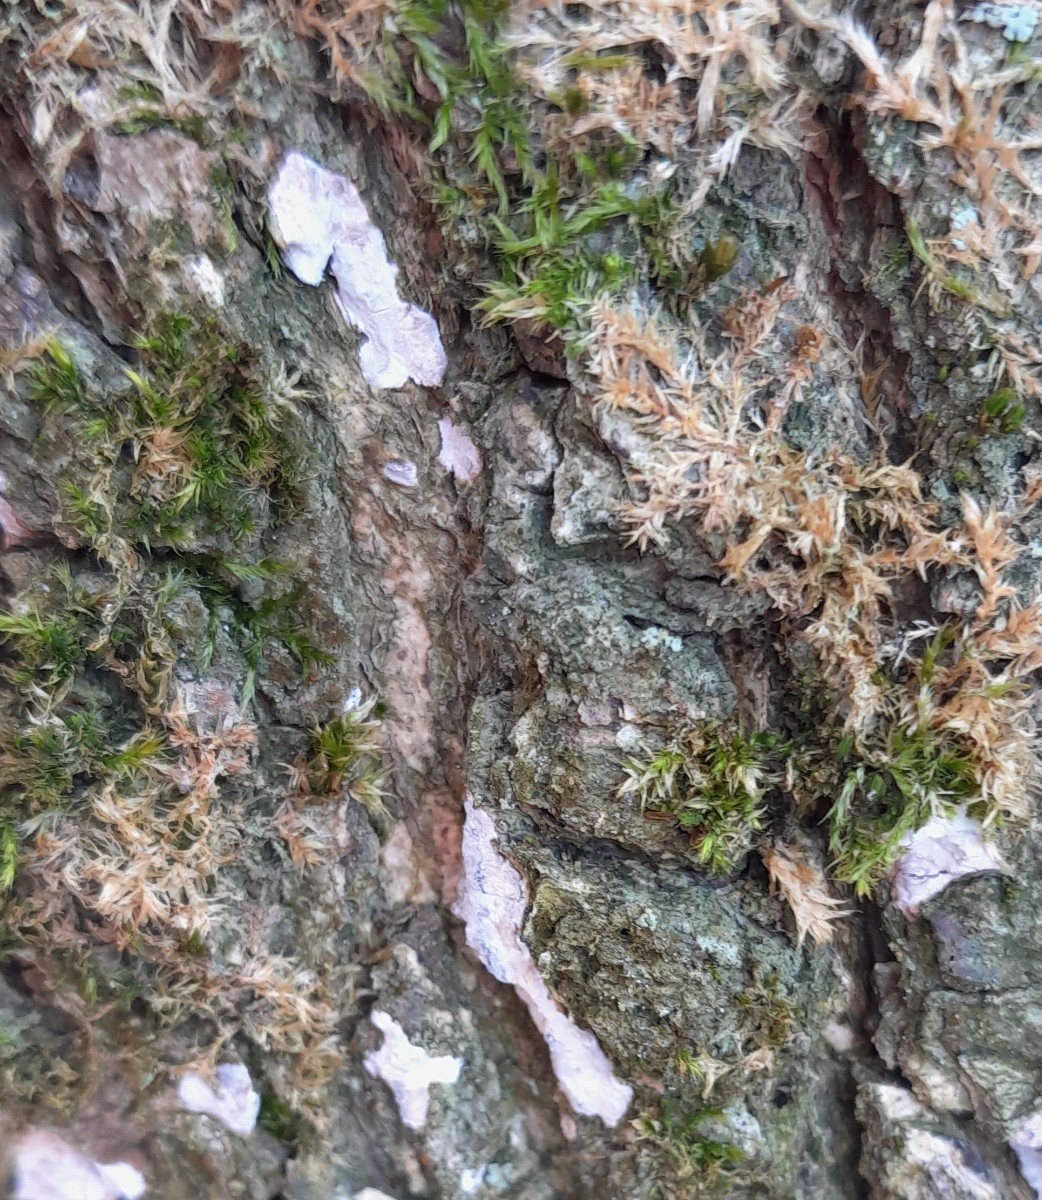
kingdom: Fungi
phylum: Basidiomycota
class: Agaricomycetes
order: Agaricales
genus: Dendrothele
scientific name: Dendrothele acerina
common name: navr-kalkplet
